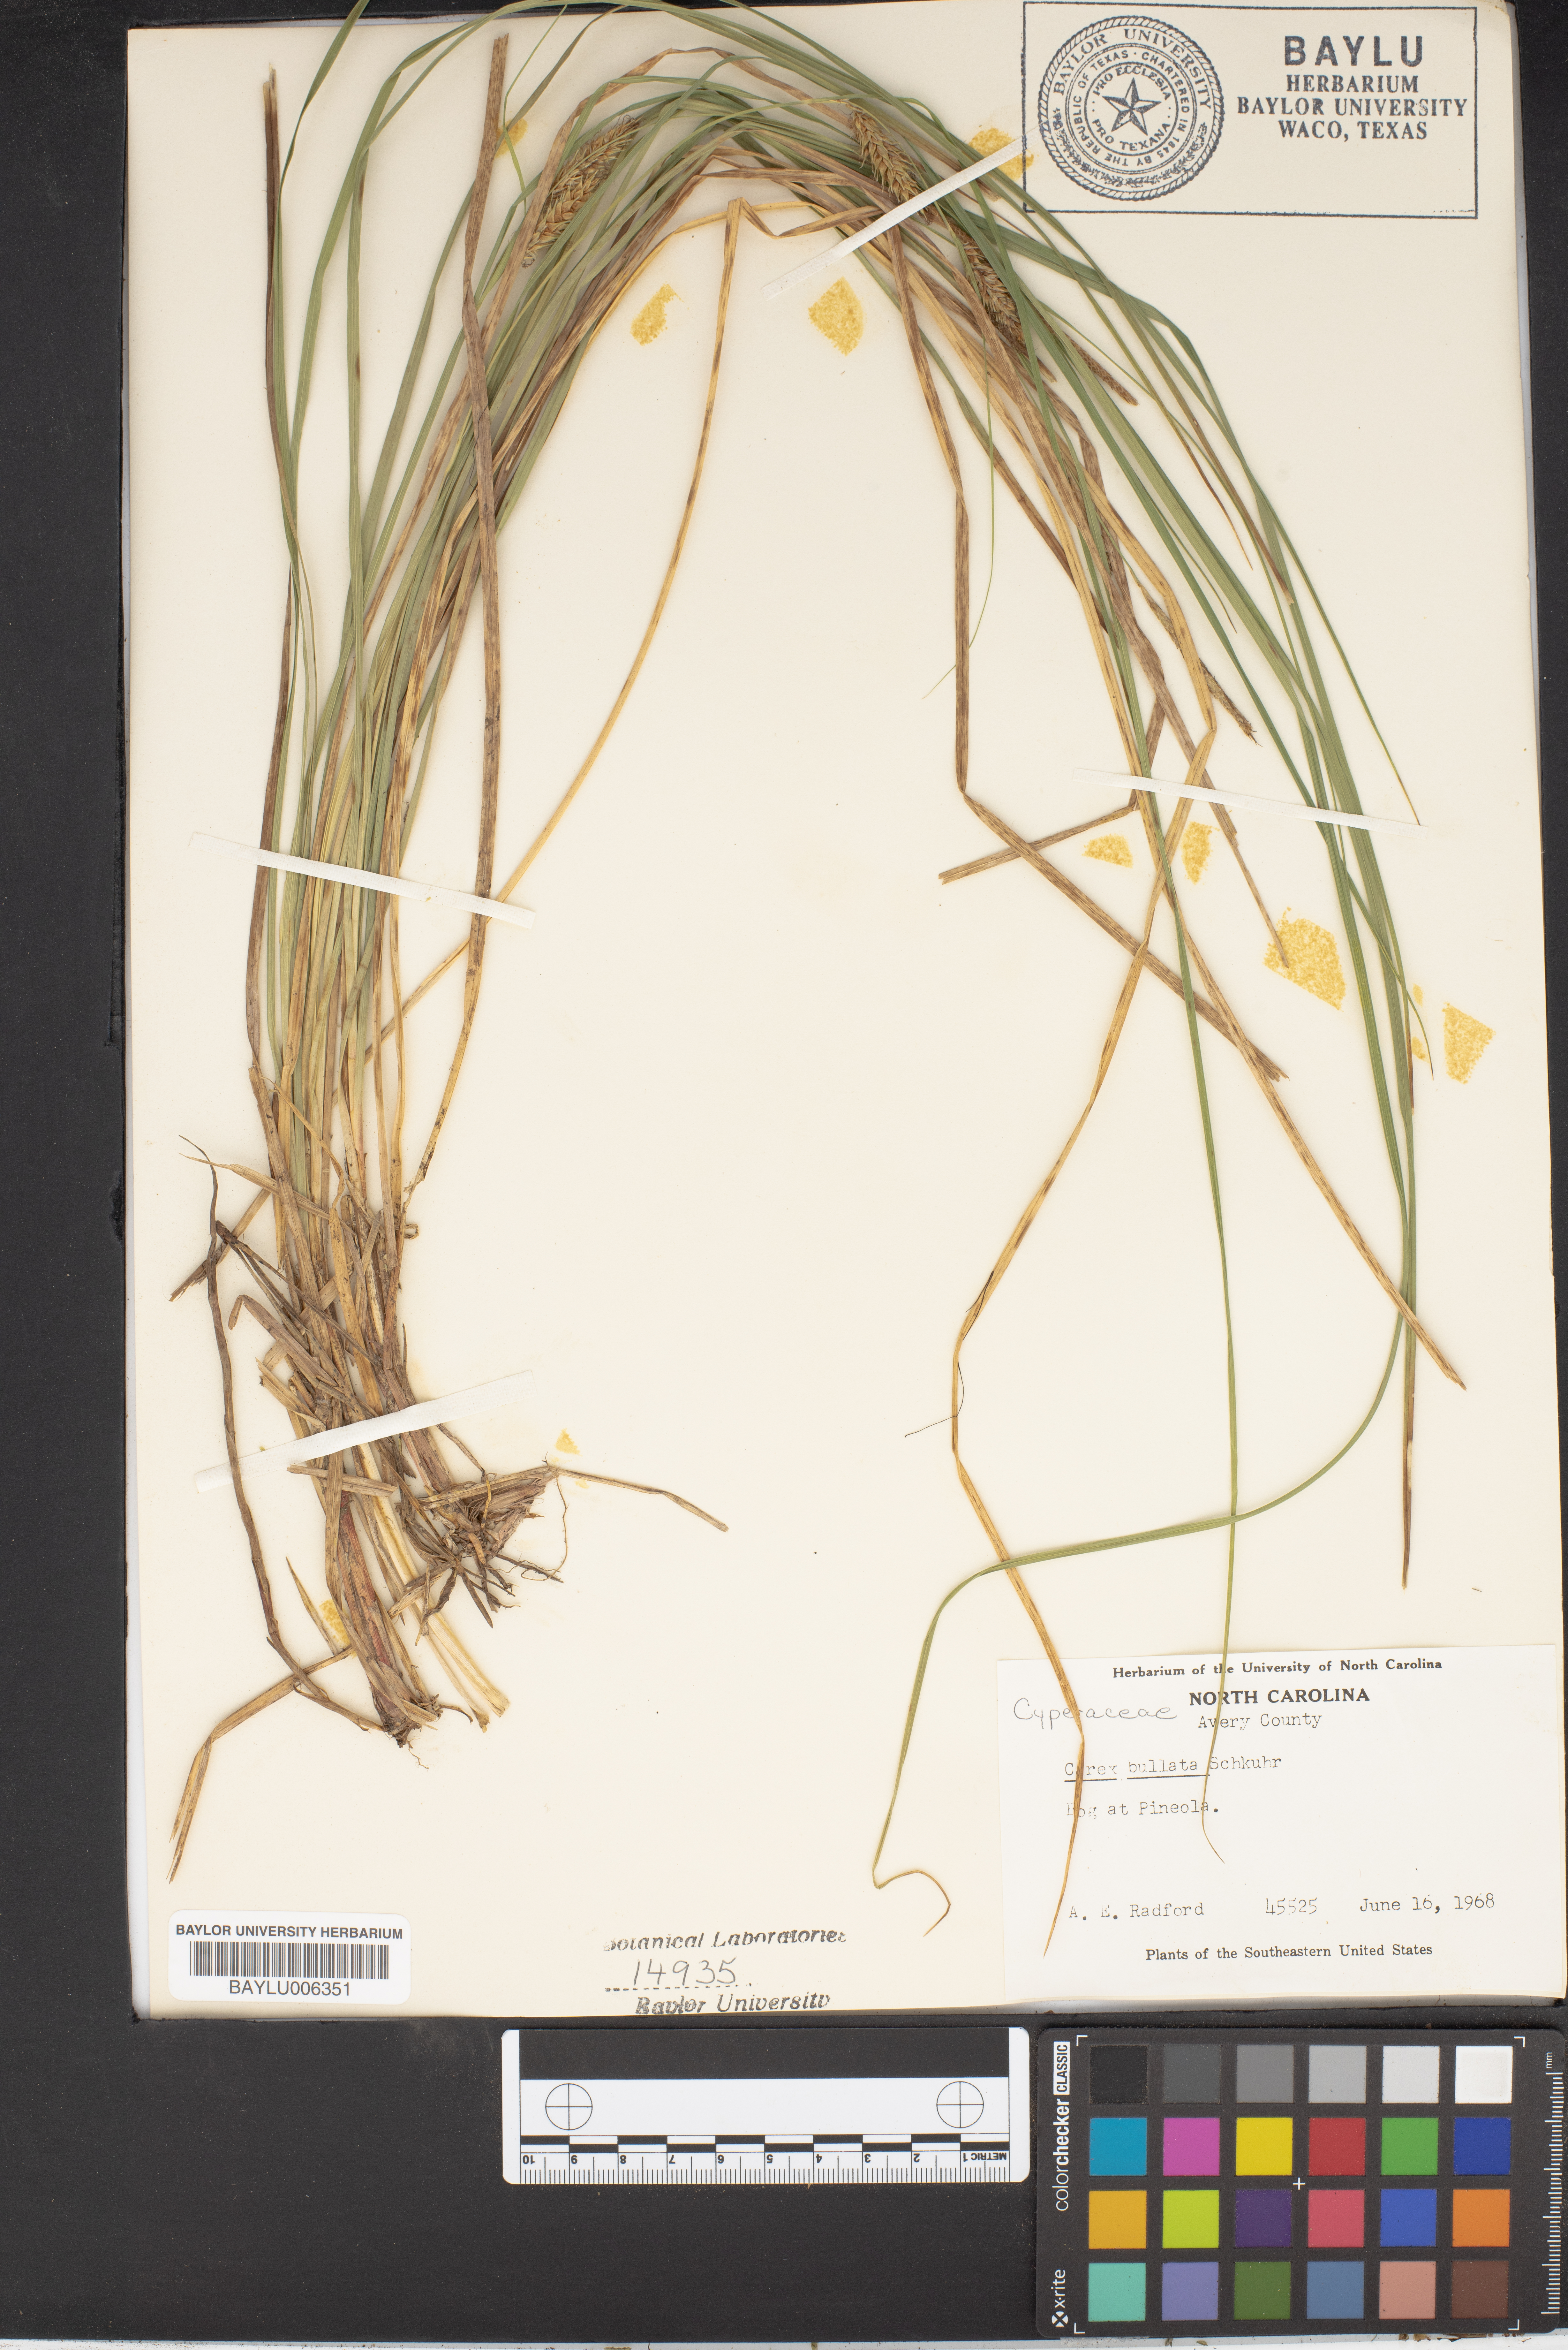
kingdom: Plantae
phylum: Tracheophyta
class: Liliopsida
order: Poales
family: Cyperaceae
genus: Carex
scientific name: Carex bullata
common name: Button sedge
